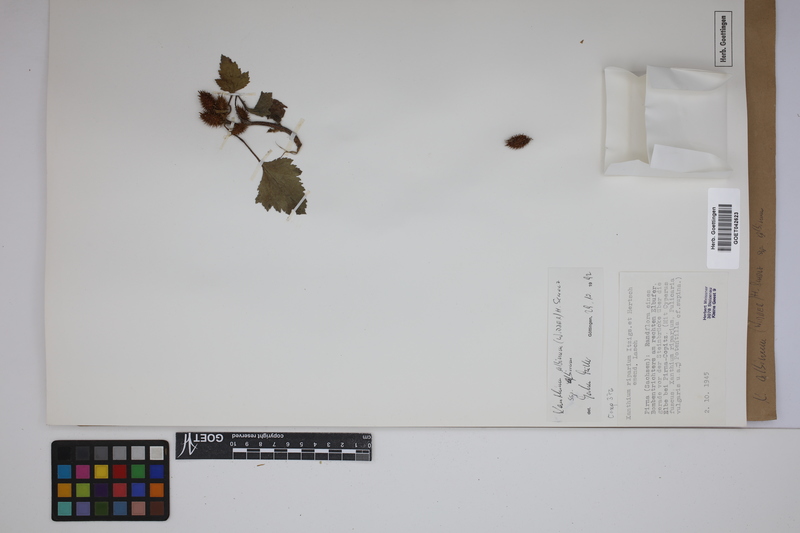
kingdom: Plantae
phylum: Tracheophyta
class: Magnoliopsida
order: Asterales
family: Asteraceae
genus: Xanthium
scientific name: Xanthium orientale
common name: Californian burr
